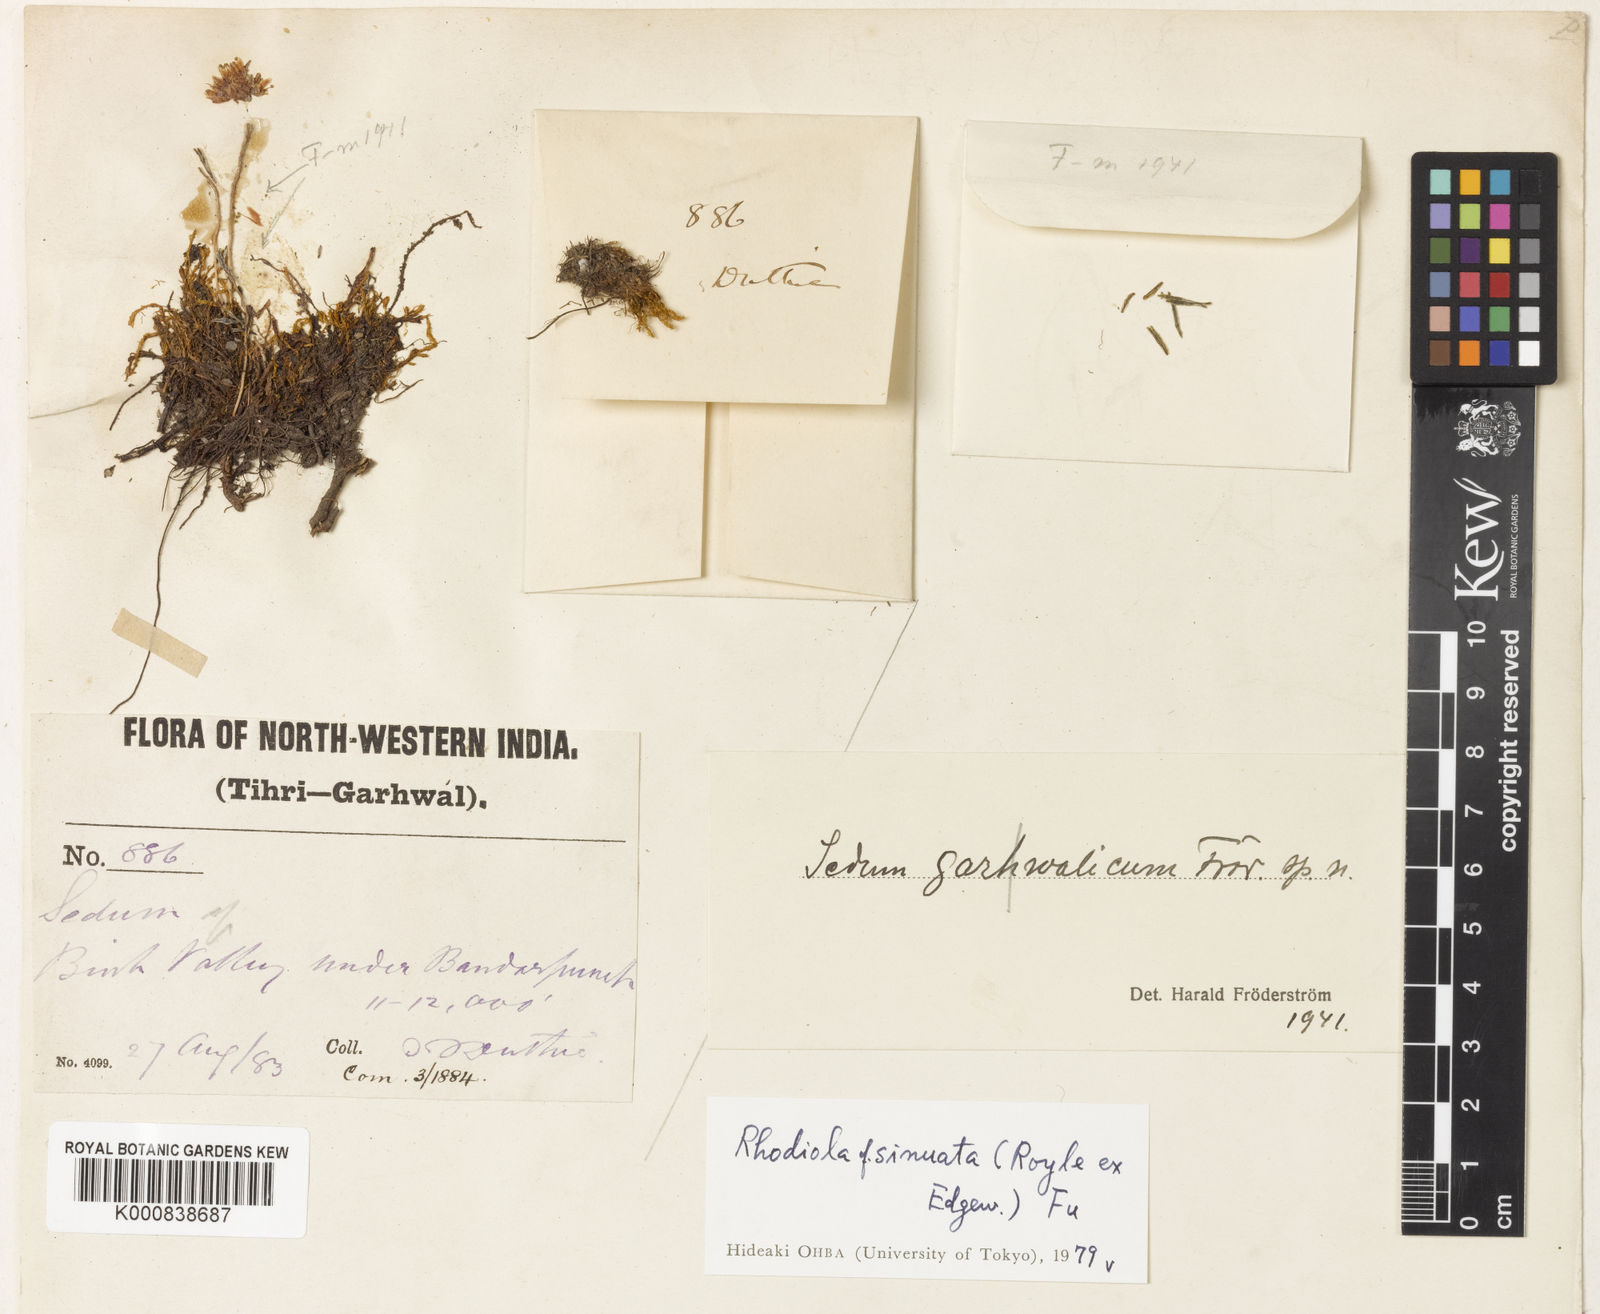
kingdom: Plantae
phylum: Tracheophyta
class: Magnoliopsida
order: Saxifragales
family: Crassulaceae
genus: Rhodiola
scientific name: Rhodiola sinuata
